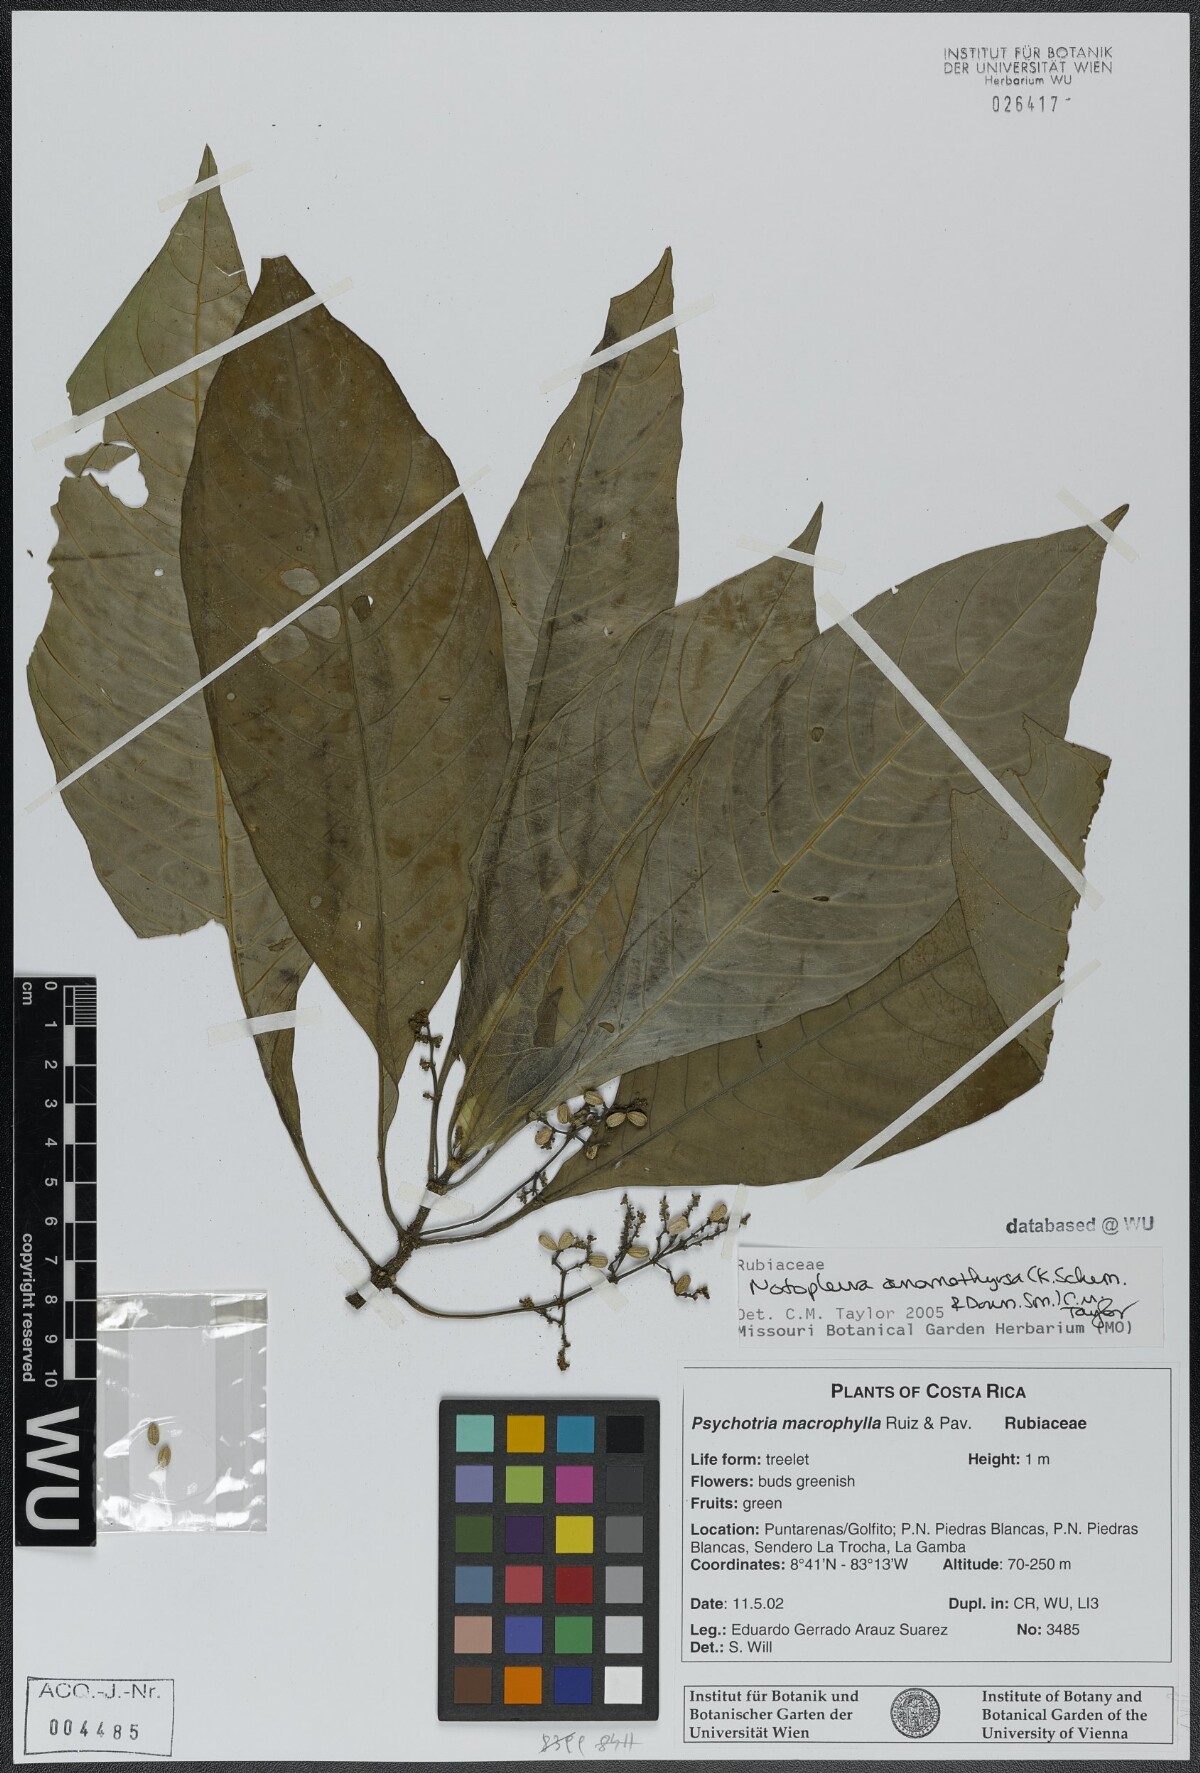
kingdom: Plantae
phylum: Tracheophyta
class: Magnoliopsida
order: Gentianales
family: Rubiaceae
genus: Notopleura
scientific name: Notopleura anomothyrsa
